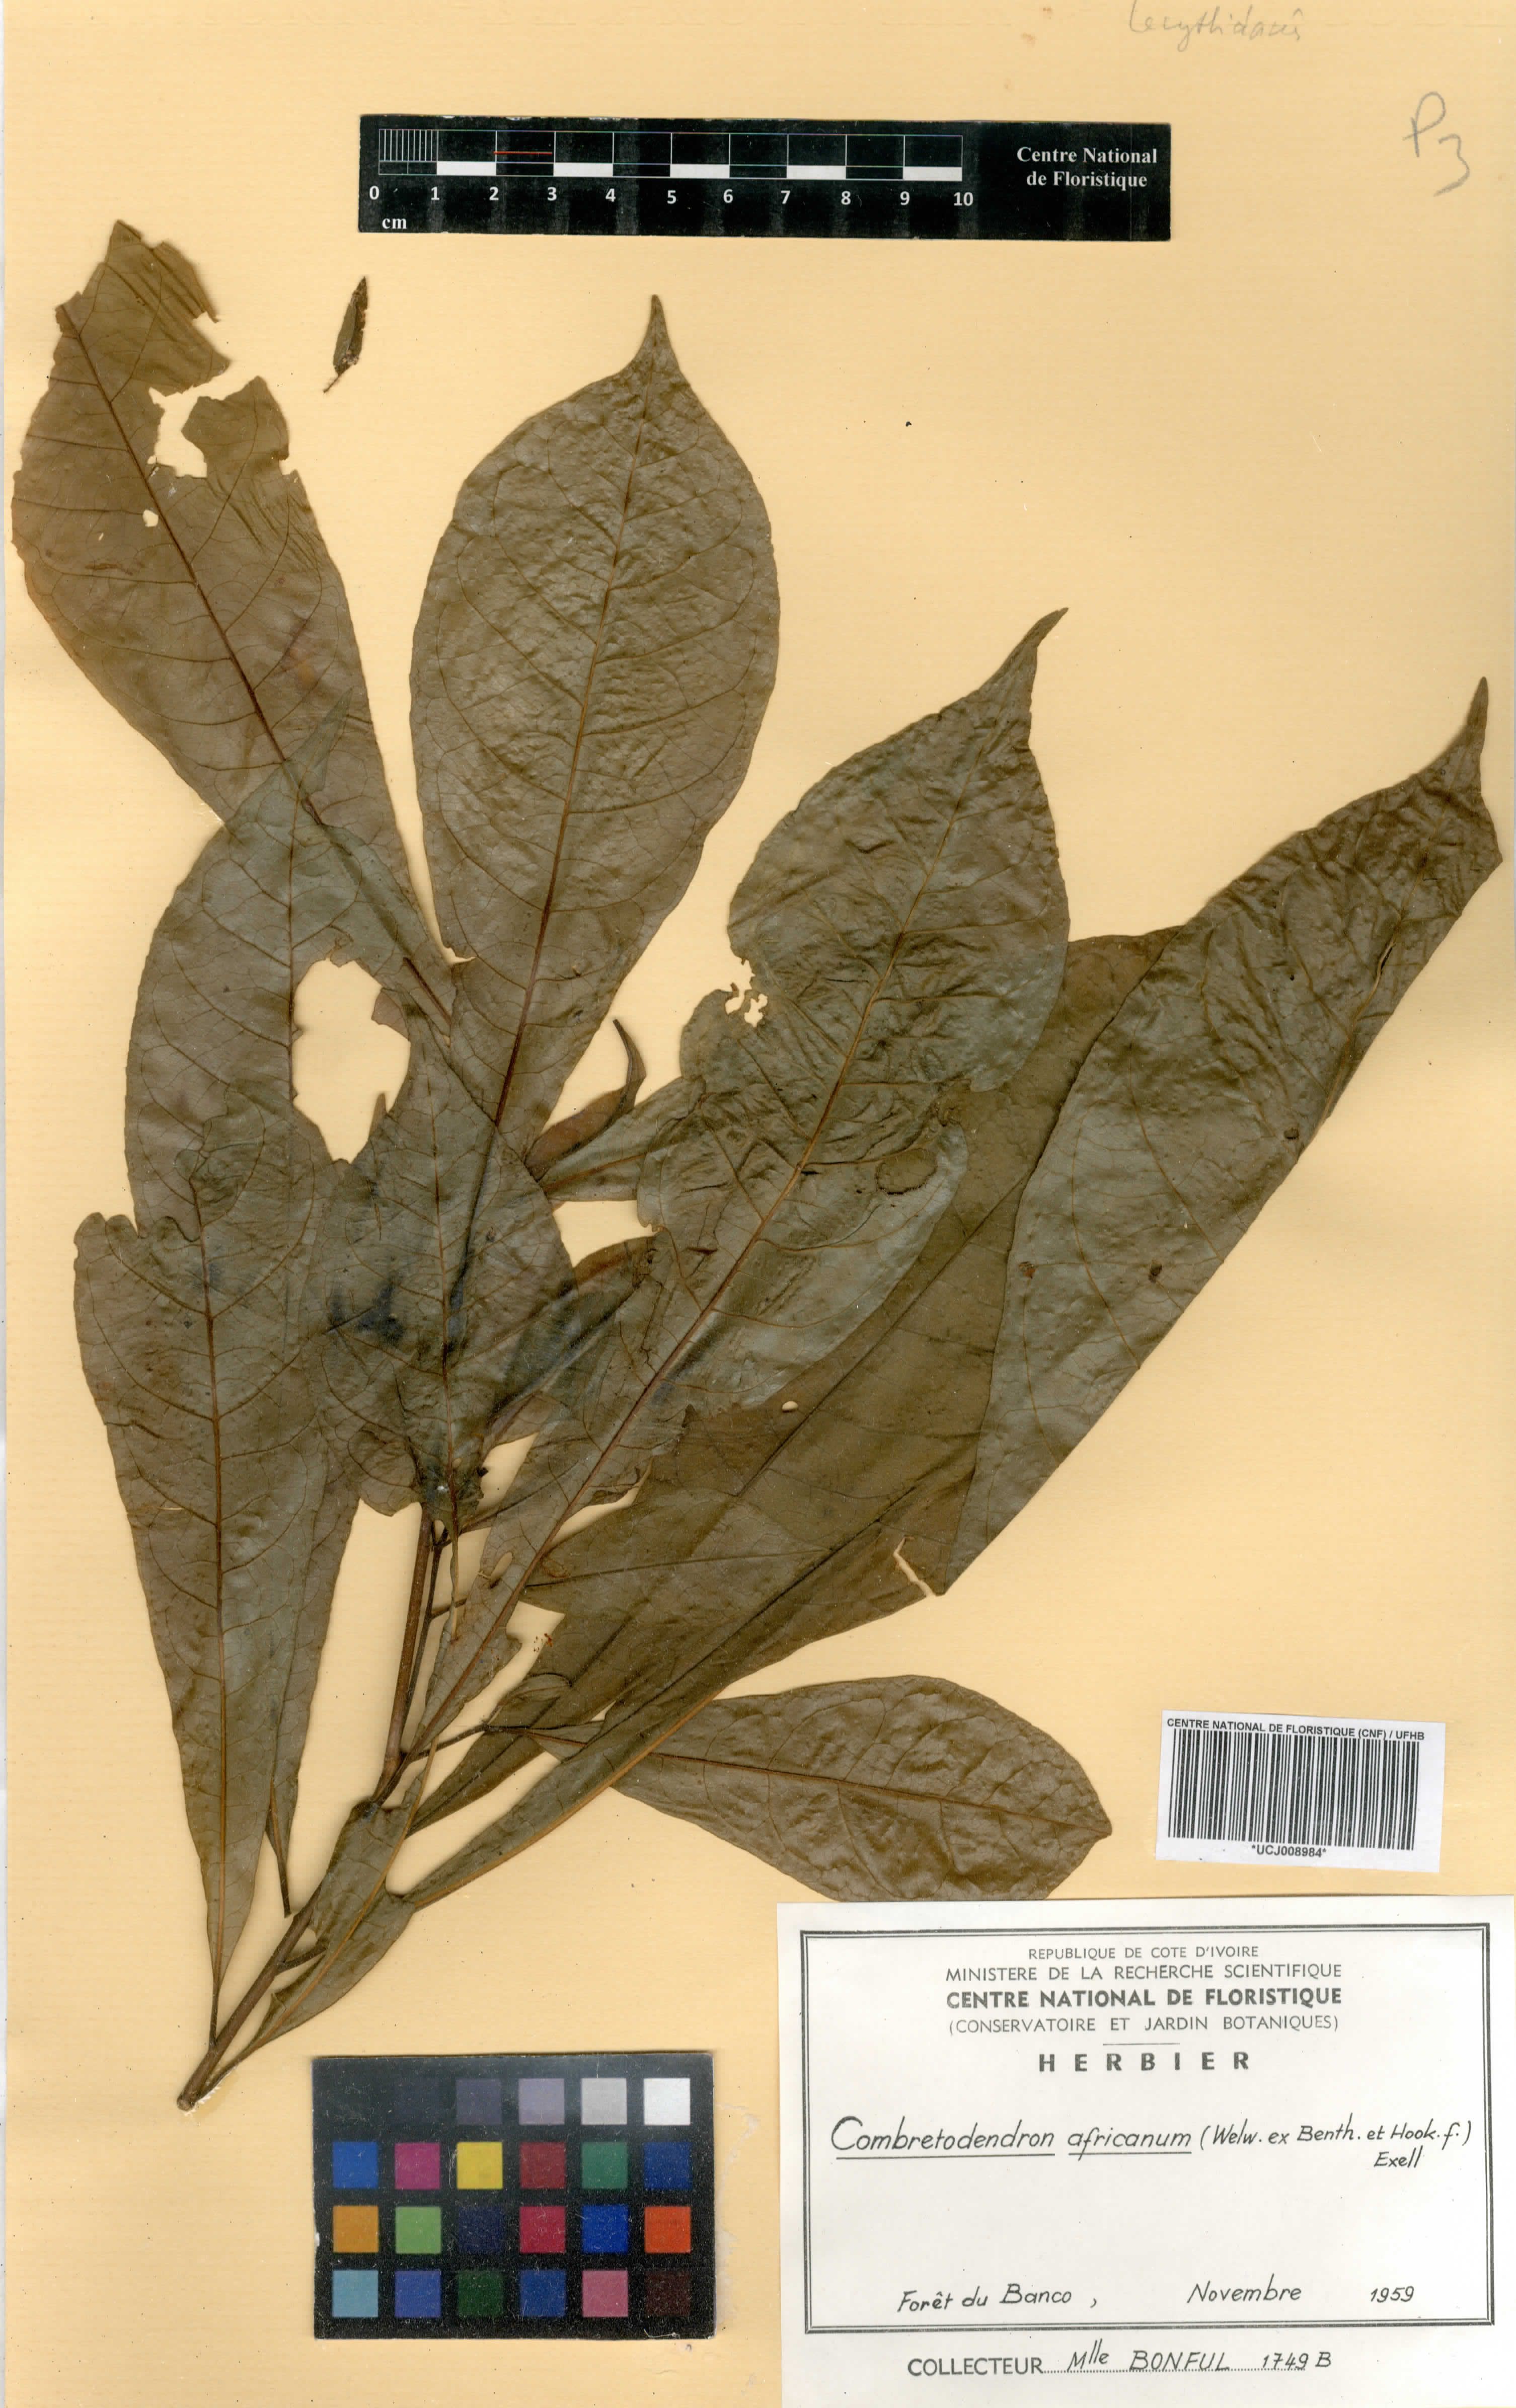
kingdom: Plantae
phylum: Tracheophyta
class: Magnoliopsida
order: Ericales
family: Lecythidaceae
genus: Petersianthus
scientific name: Petersianthus macrocarpus
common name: Essia
